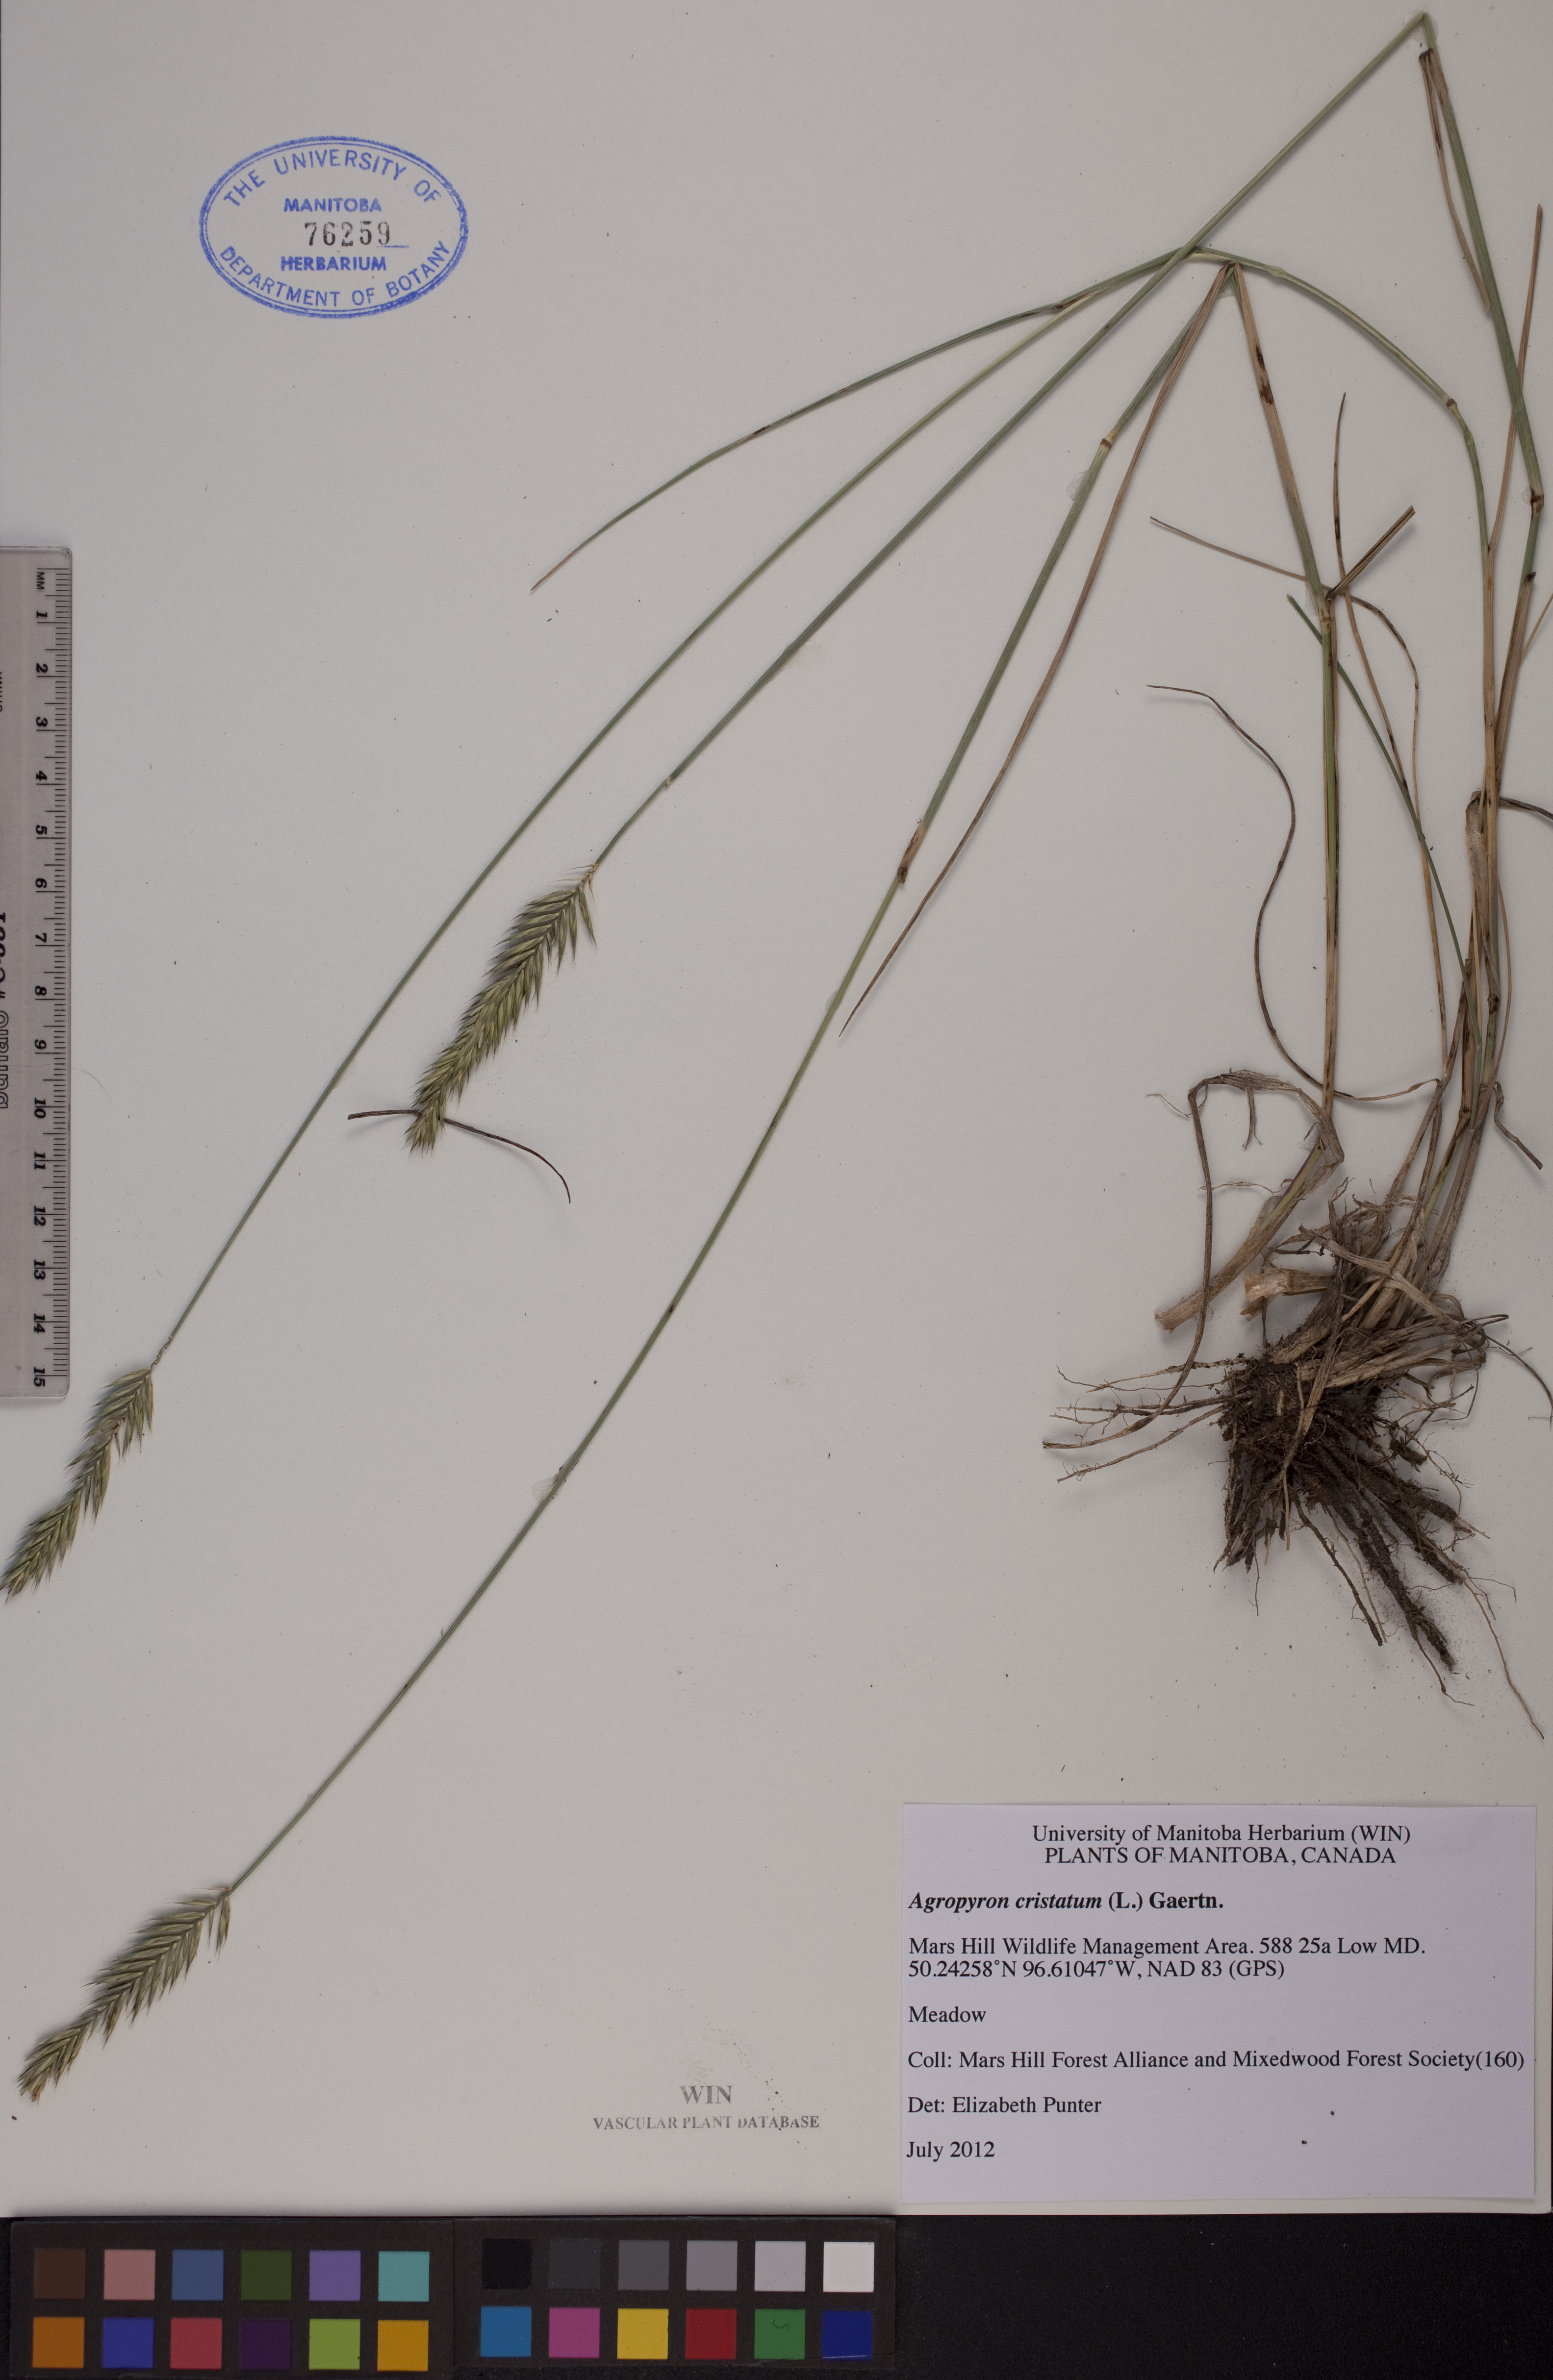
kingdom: Plantae
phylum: Tracheophyta
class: Liliopsida
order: Poales
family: Poaceae
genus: Agropyron
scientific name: Agropyron cristatum
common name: Crested wheatgrass
